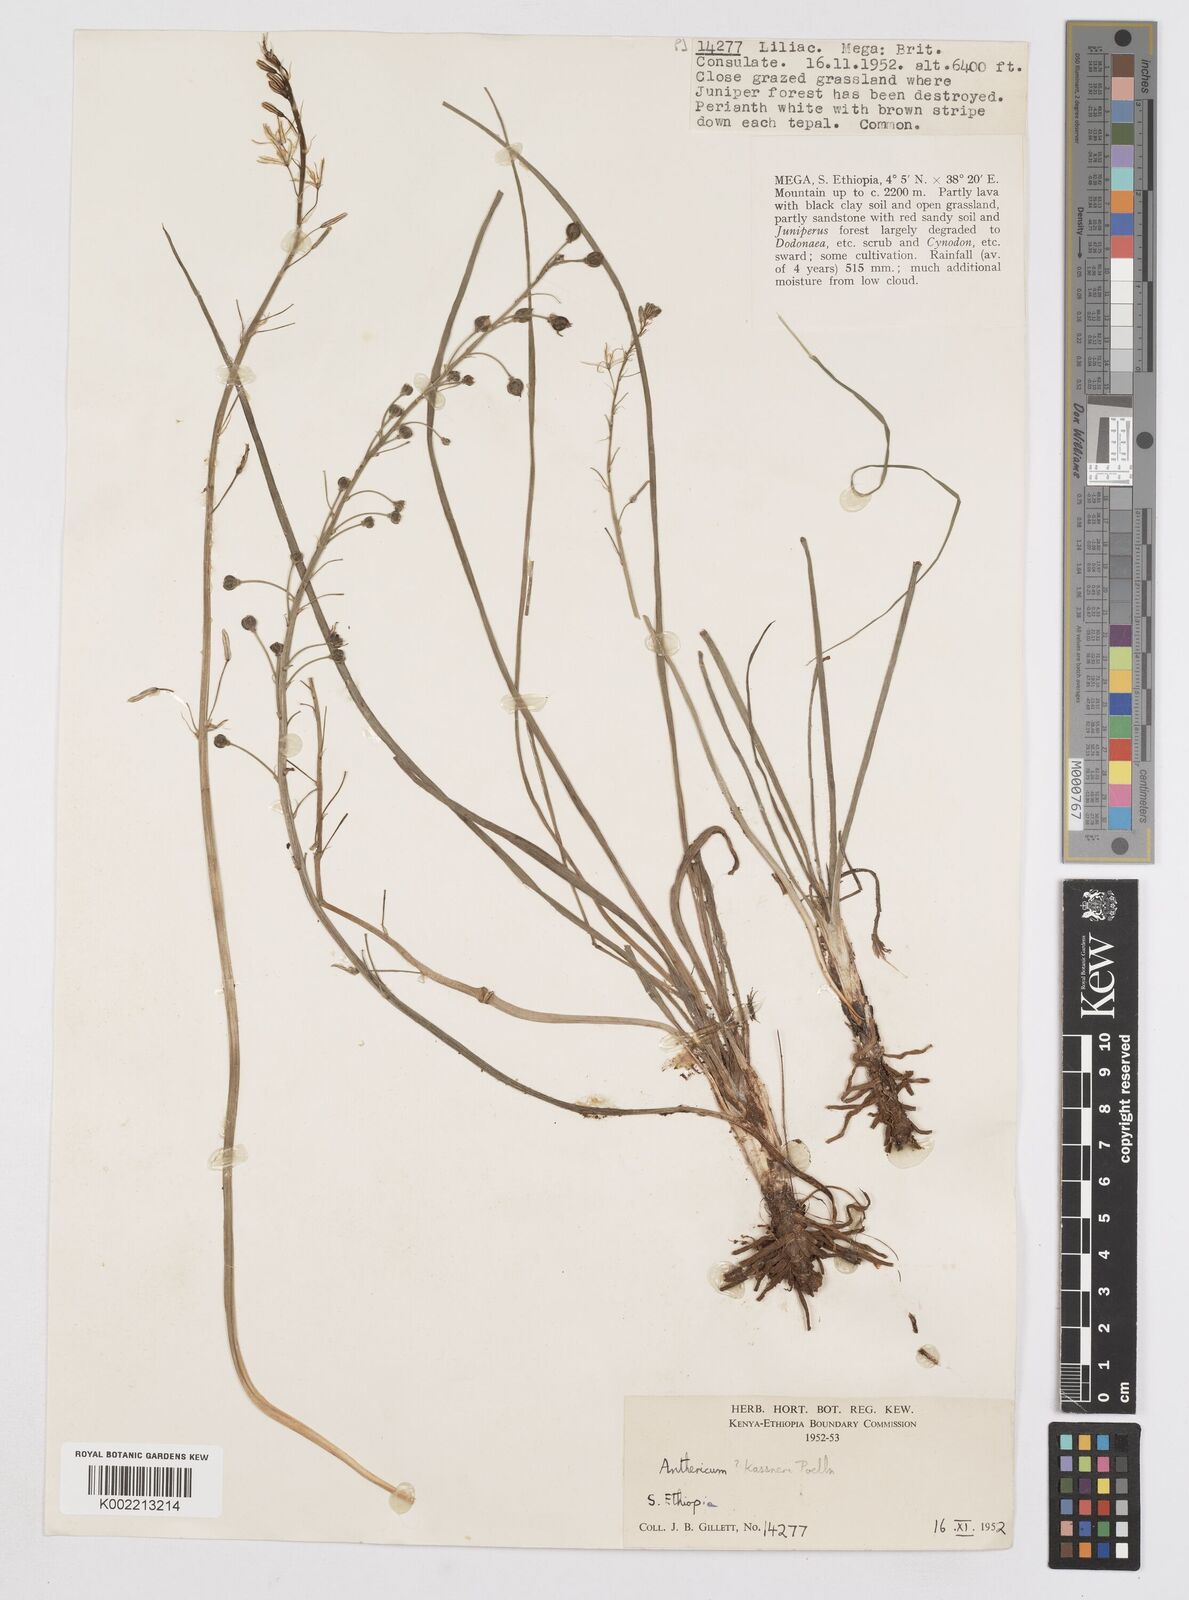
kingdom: Plantae
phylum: Tracheophyta
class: Liliopsida
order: Asparagales
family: Asphodelaceae
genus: Trachyandra
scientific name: Trachyandra saltii
